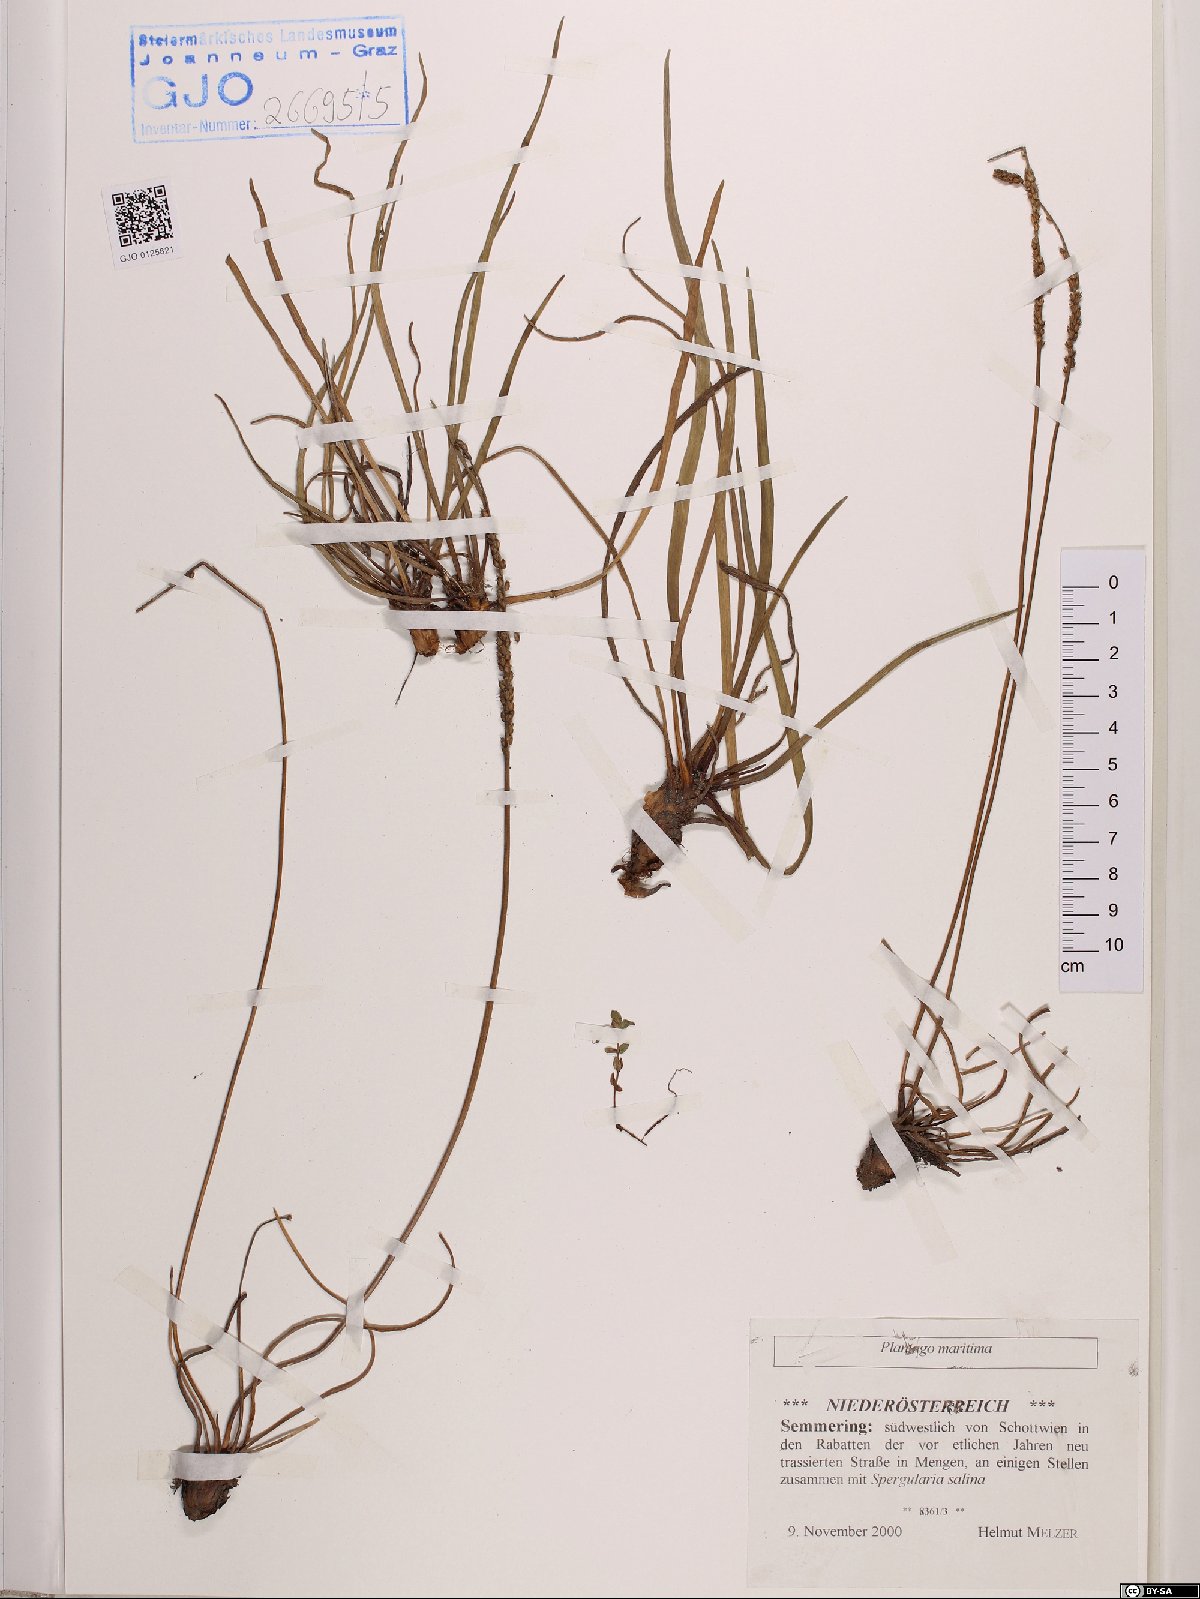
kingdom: Plantae
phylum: Tracheophyta
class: Magnoliopsida
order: Lamiales
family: Plantaginaceae
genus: Plantago
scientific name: Plantago maritima
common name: Sea plantain
